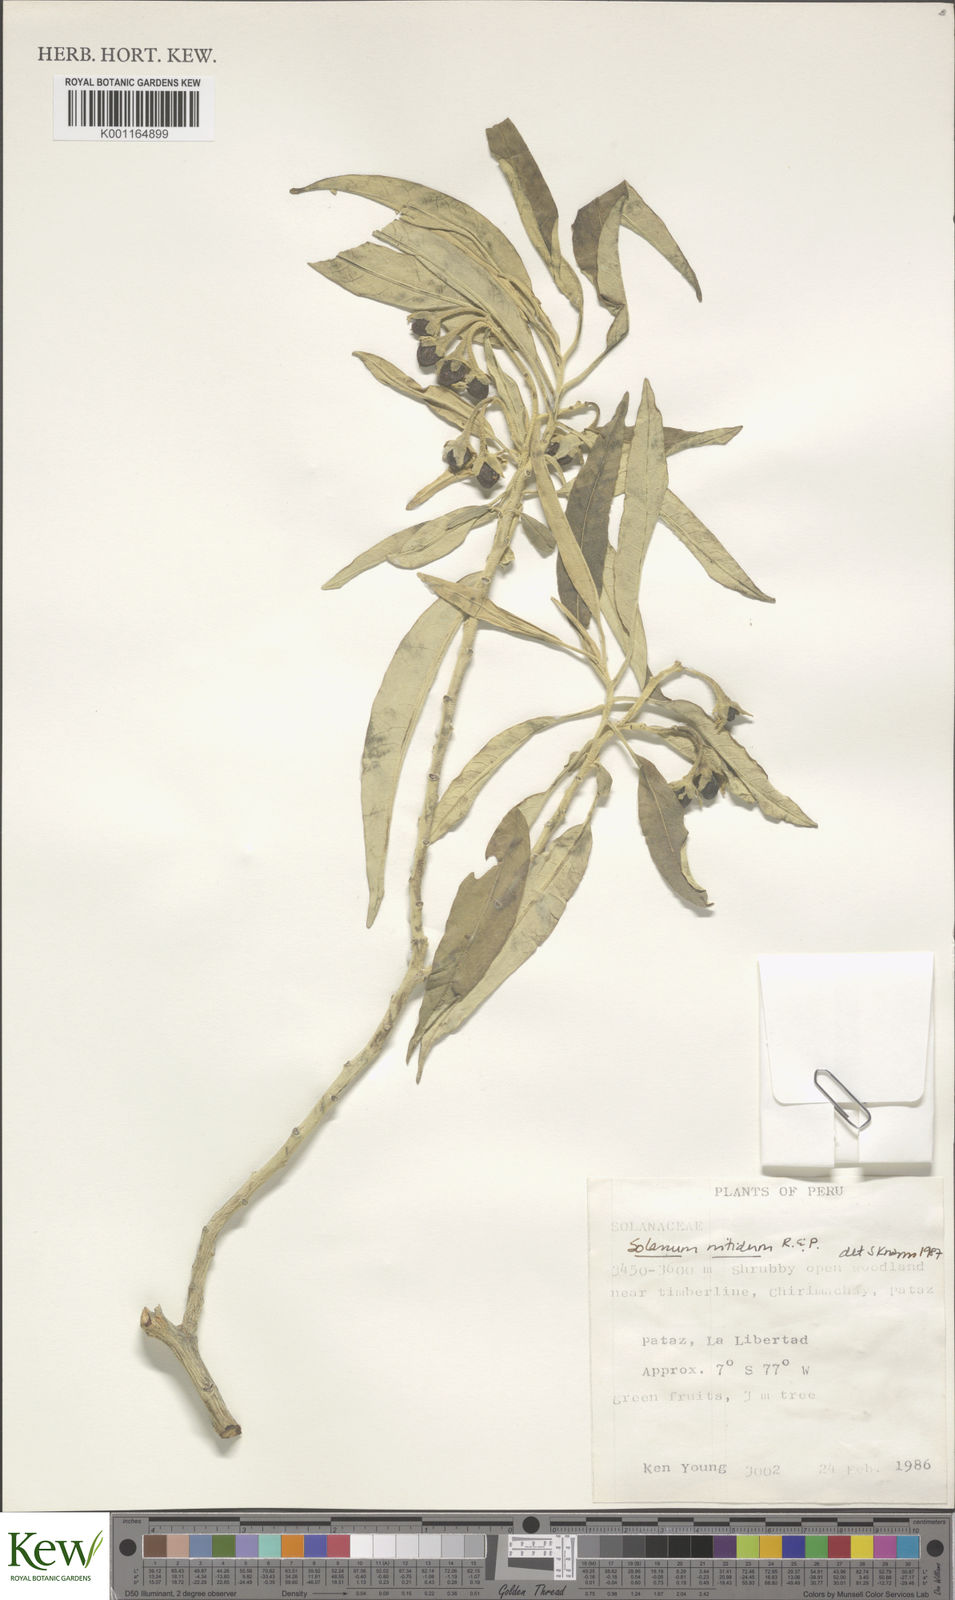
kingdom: Plantae
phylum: Tracheophyta
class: Magnoliopsida
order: Solanales
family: Solanaceae
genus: Solanum
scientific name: Solanum nitidum
